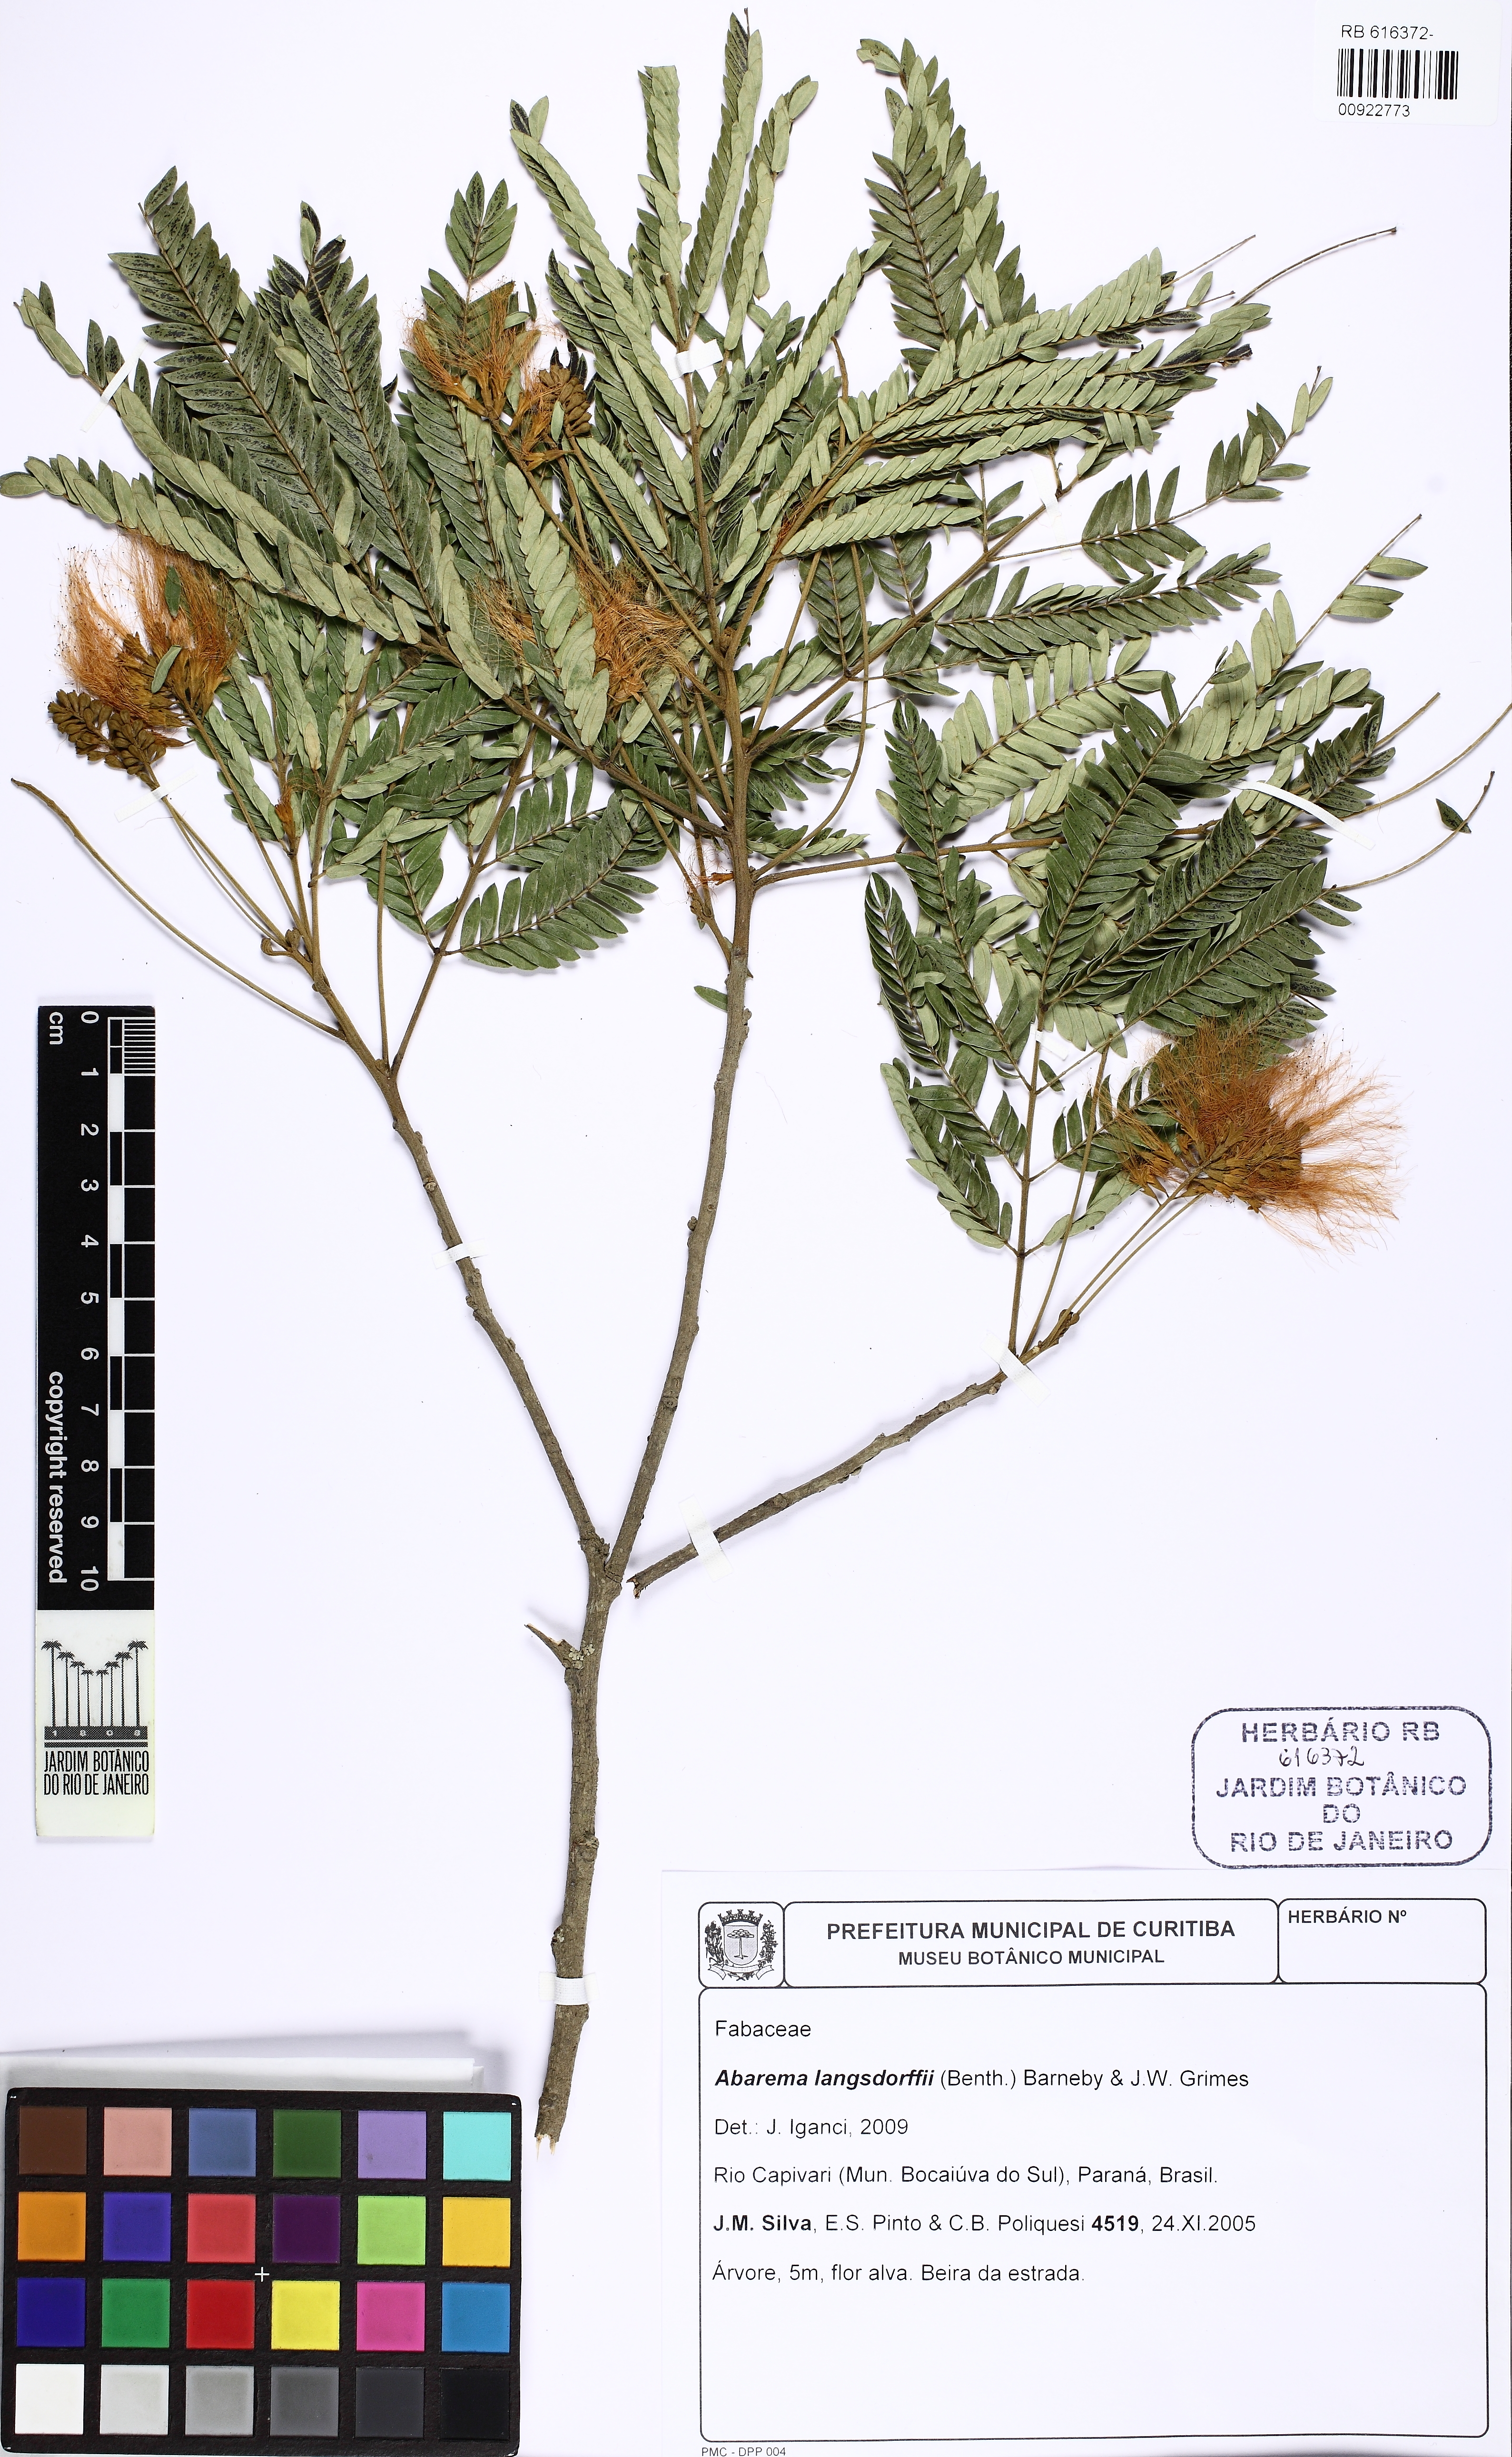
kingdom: Plantae
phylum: Tracheophyta
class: Magnoliopsida
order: Fabales
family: Fabaceae
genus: Jupunba
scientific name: Jupunba langsdorffii
